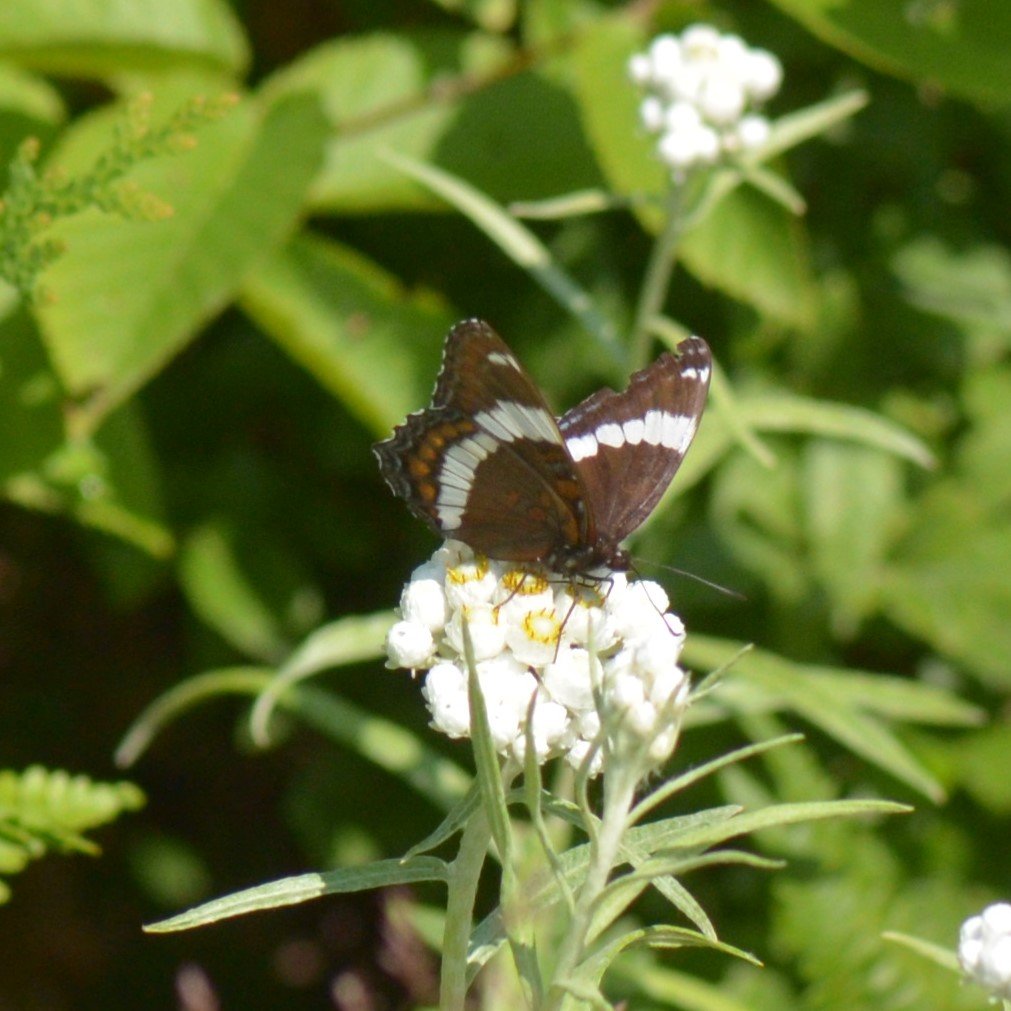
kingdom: Animalia
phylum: Arthropoda
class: Insecta
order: Lepidoptera
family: Nymphalidae
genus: Limenitis
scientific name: Limenitis arthemis
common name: Red-spotted Admiral
